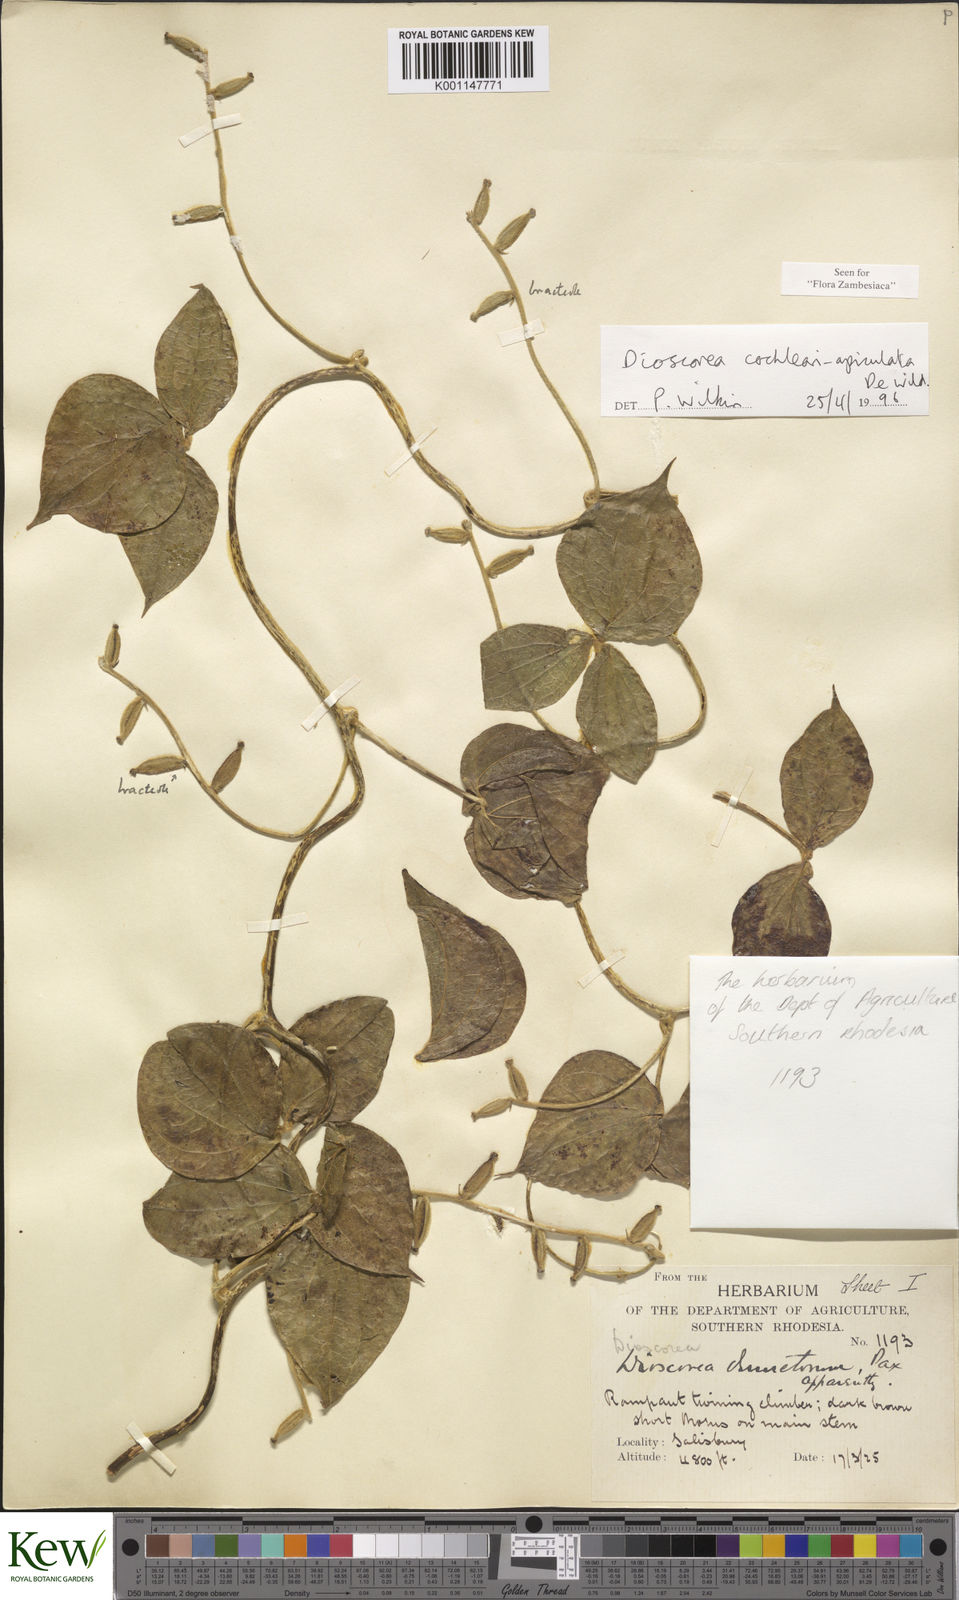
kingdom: Plantae
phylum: Tracheophyta
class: Liliopsida
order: Dioscoreales
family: Dioscoreaceae
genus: Dioscorea
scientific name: Dioscorea cochleariapiculata
